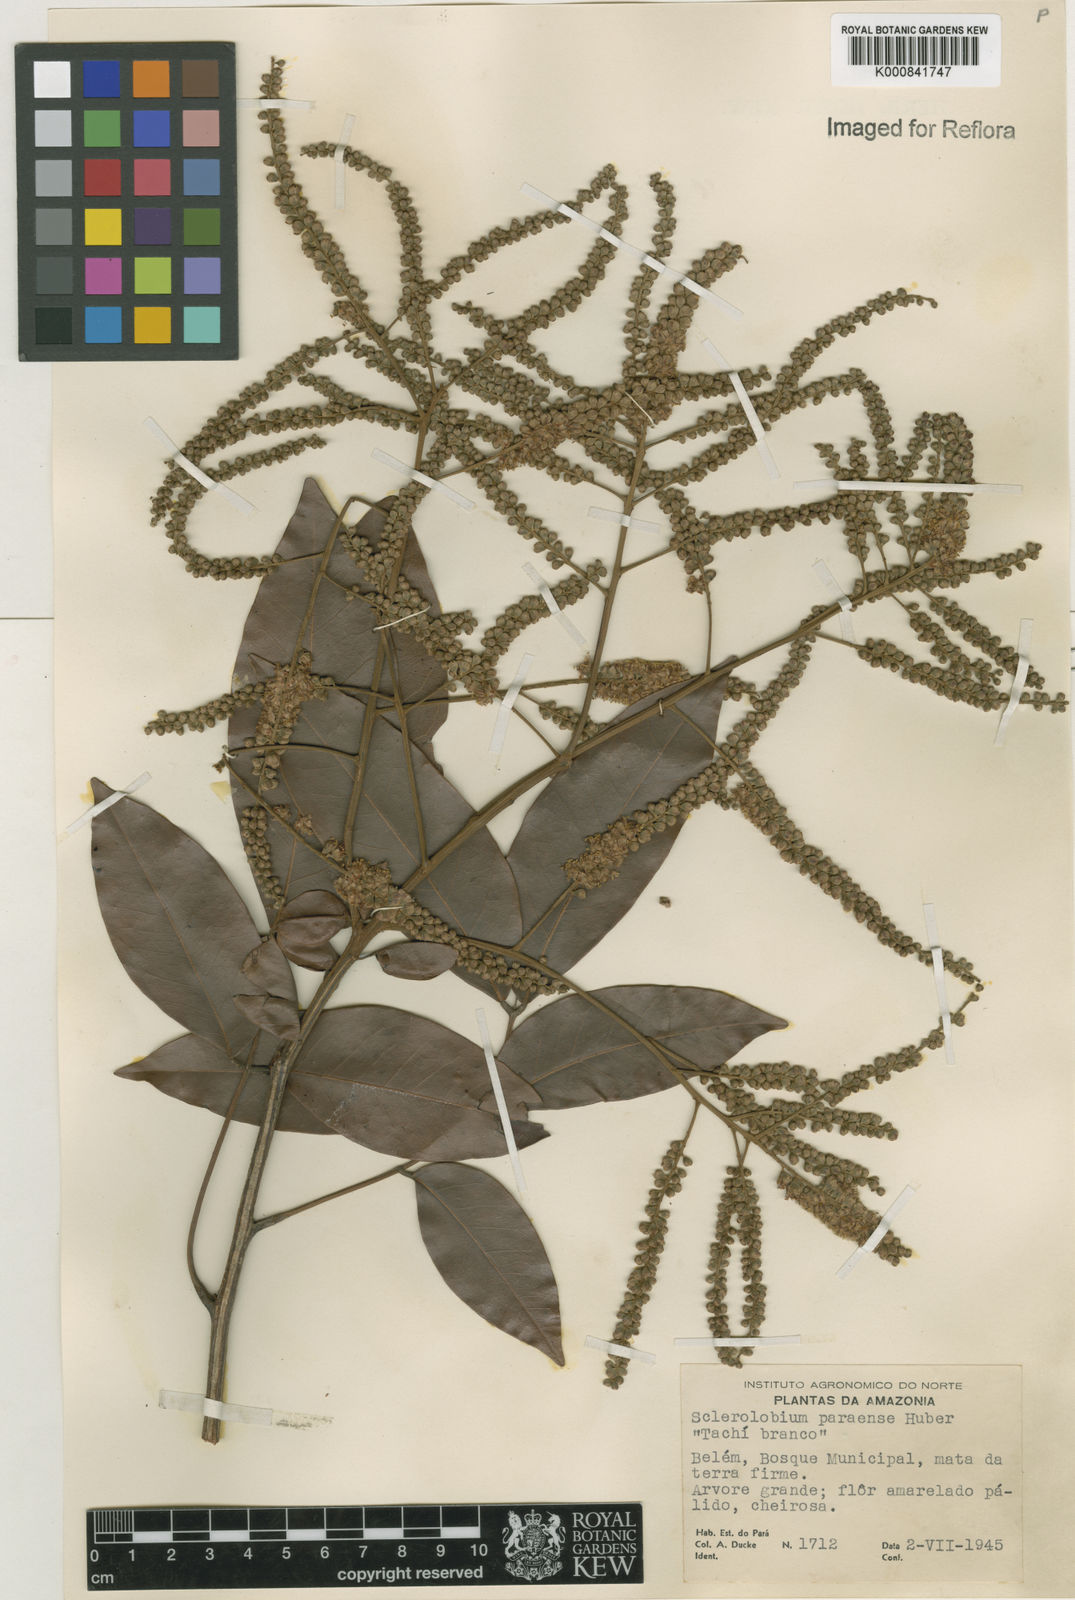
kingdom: Plantae
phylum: Tracheophyta
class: Magnoliopsida
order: Fabales
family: Fabaceae
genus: Tachigali
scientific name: Tachigali paraensis
